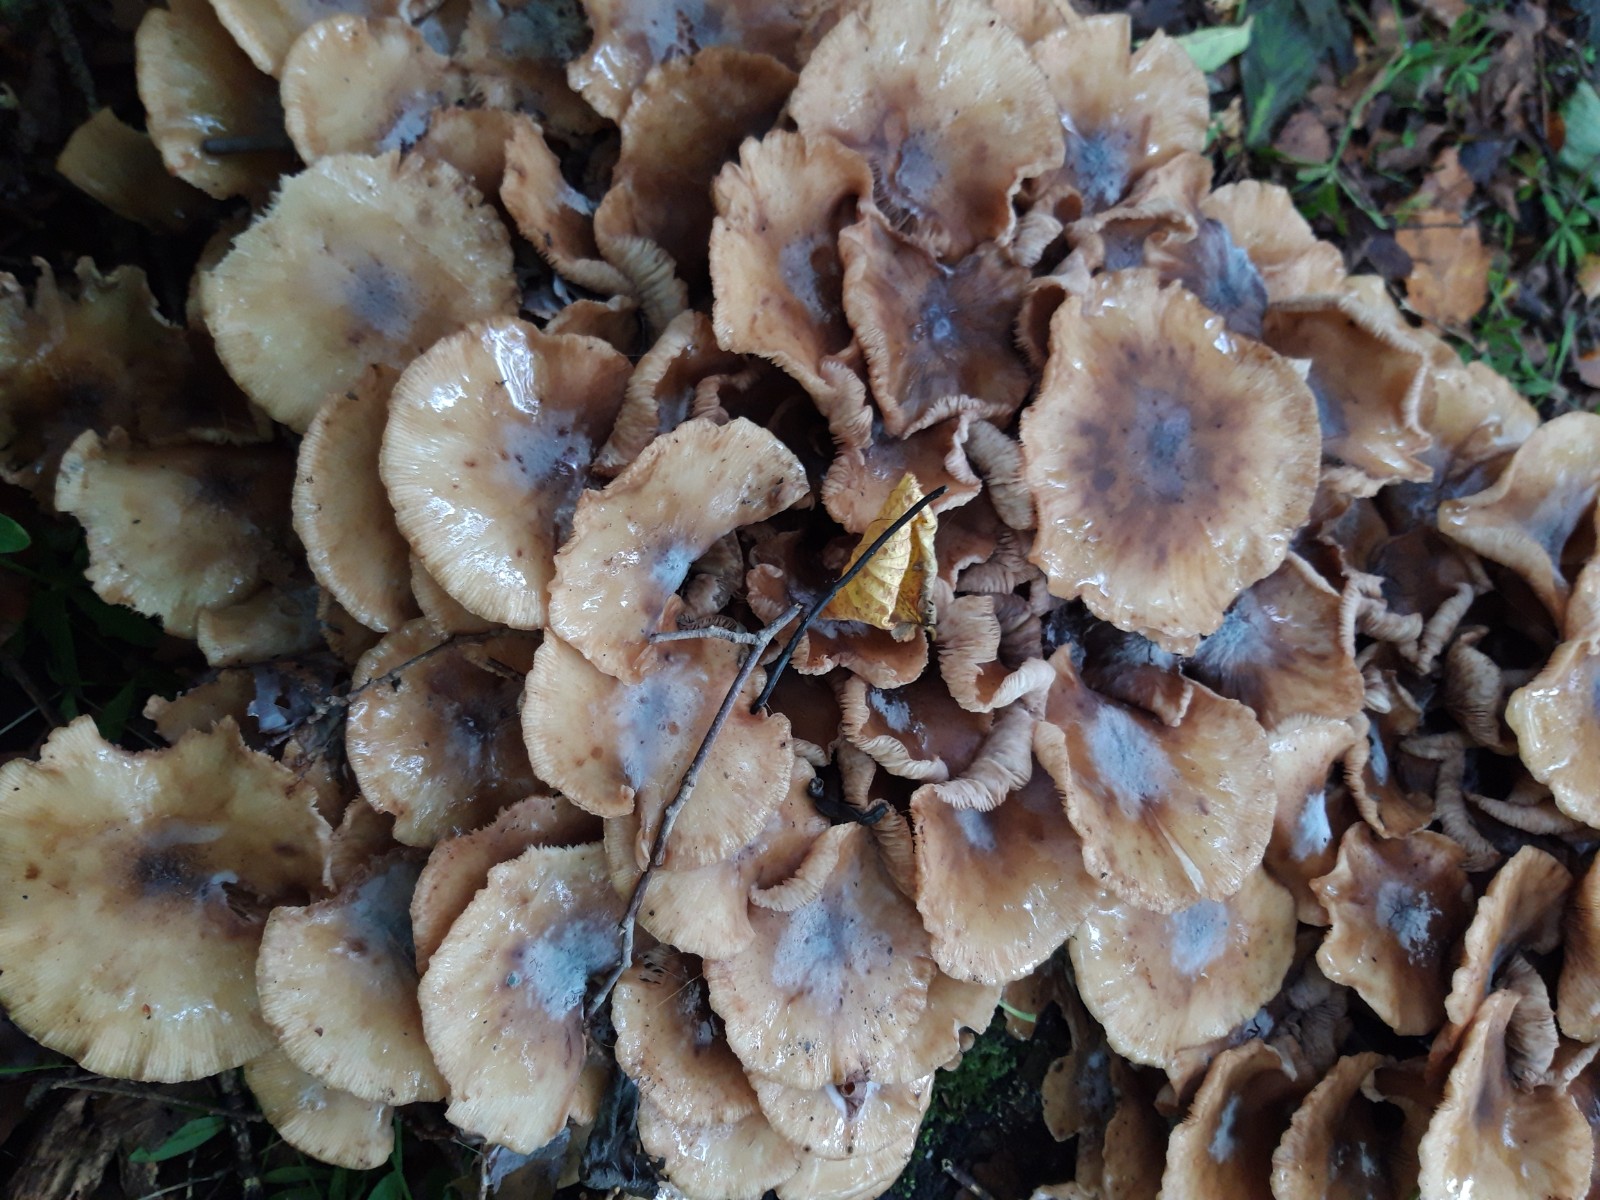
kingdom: Fungi
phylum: Basidiomycota
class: Agaricomycetes
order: Agaricales
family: Physalacriaceae
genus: Armillaria
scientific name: Armillaria mellea
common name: ægte honningsvamp
